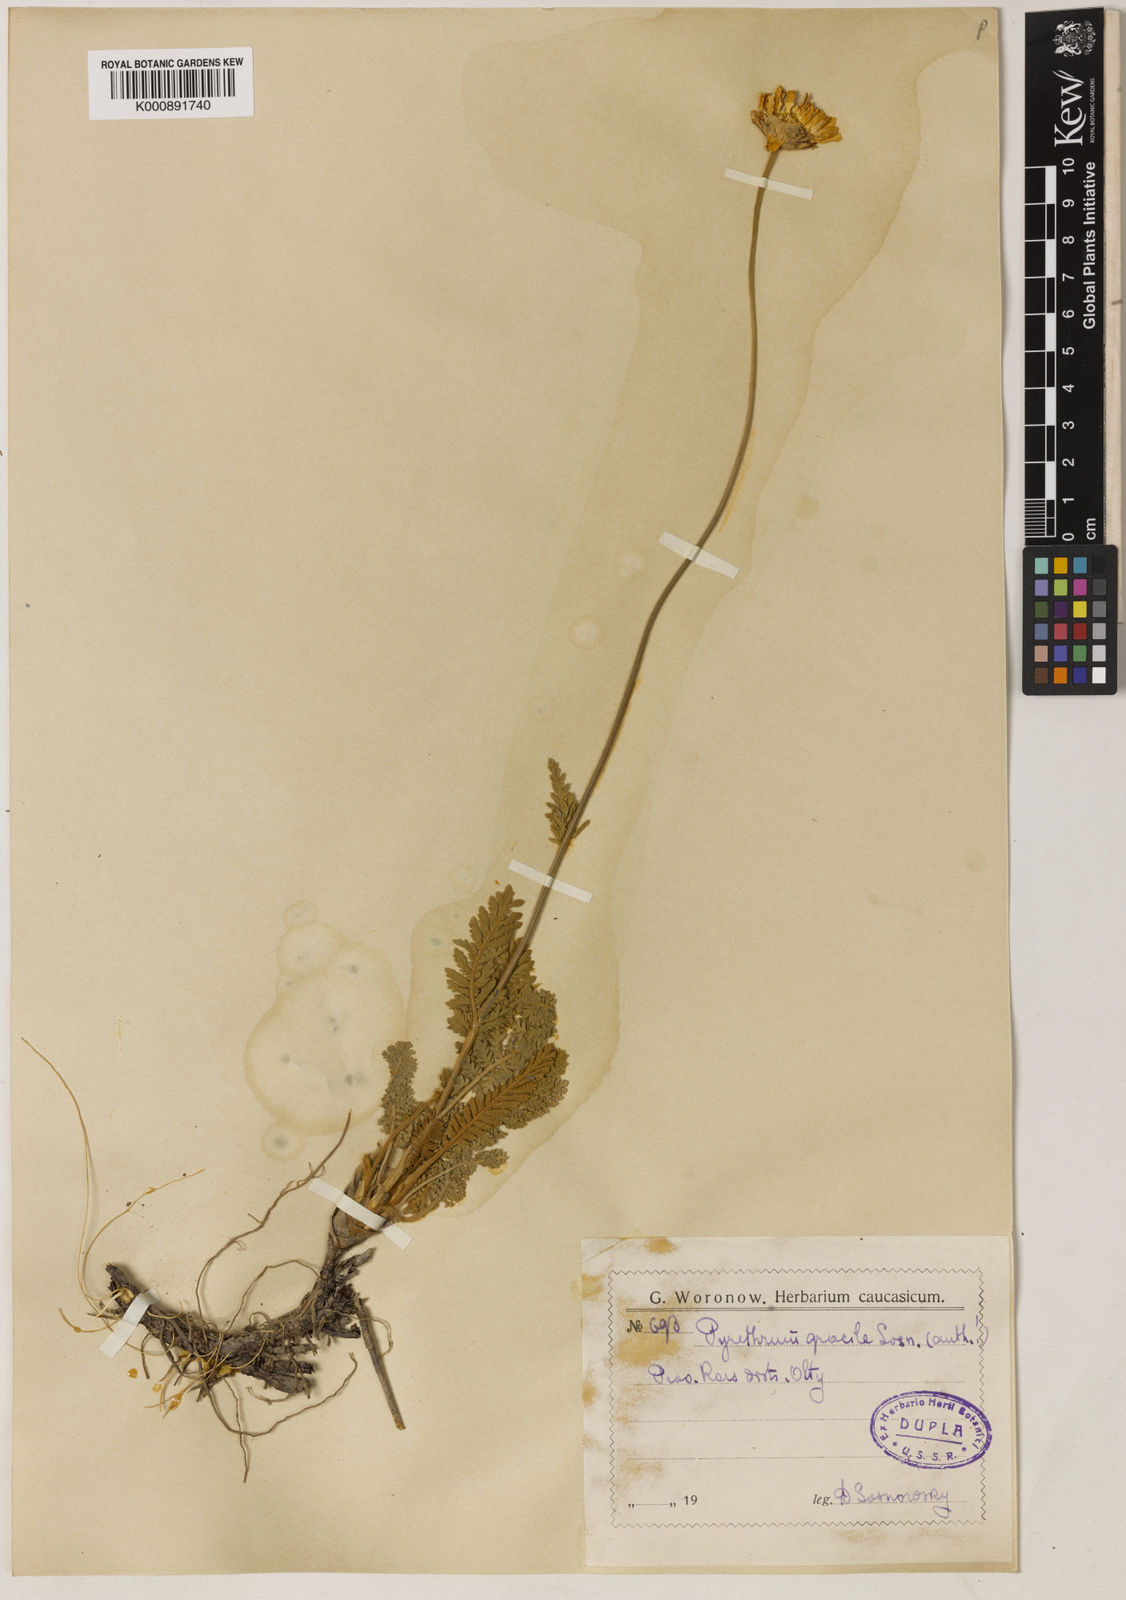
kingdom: Plantae
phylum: Tracheophyta
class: Magnoliopsida
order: Asterales
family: Asteraceae
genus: Ajania
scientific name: Ajania
